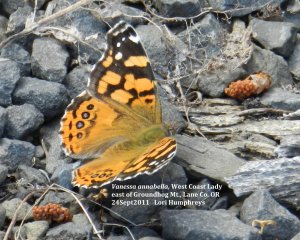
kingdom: Animalia
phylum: Arthropoda
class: Insecta
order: Lepidoptera
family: Nymphalidae
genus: Vanessa
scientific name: Vanessa annabella
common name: West Coast Lady
